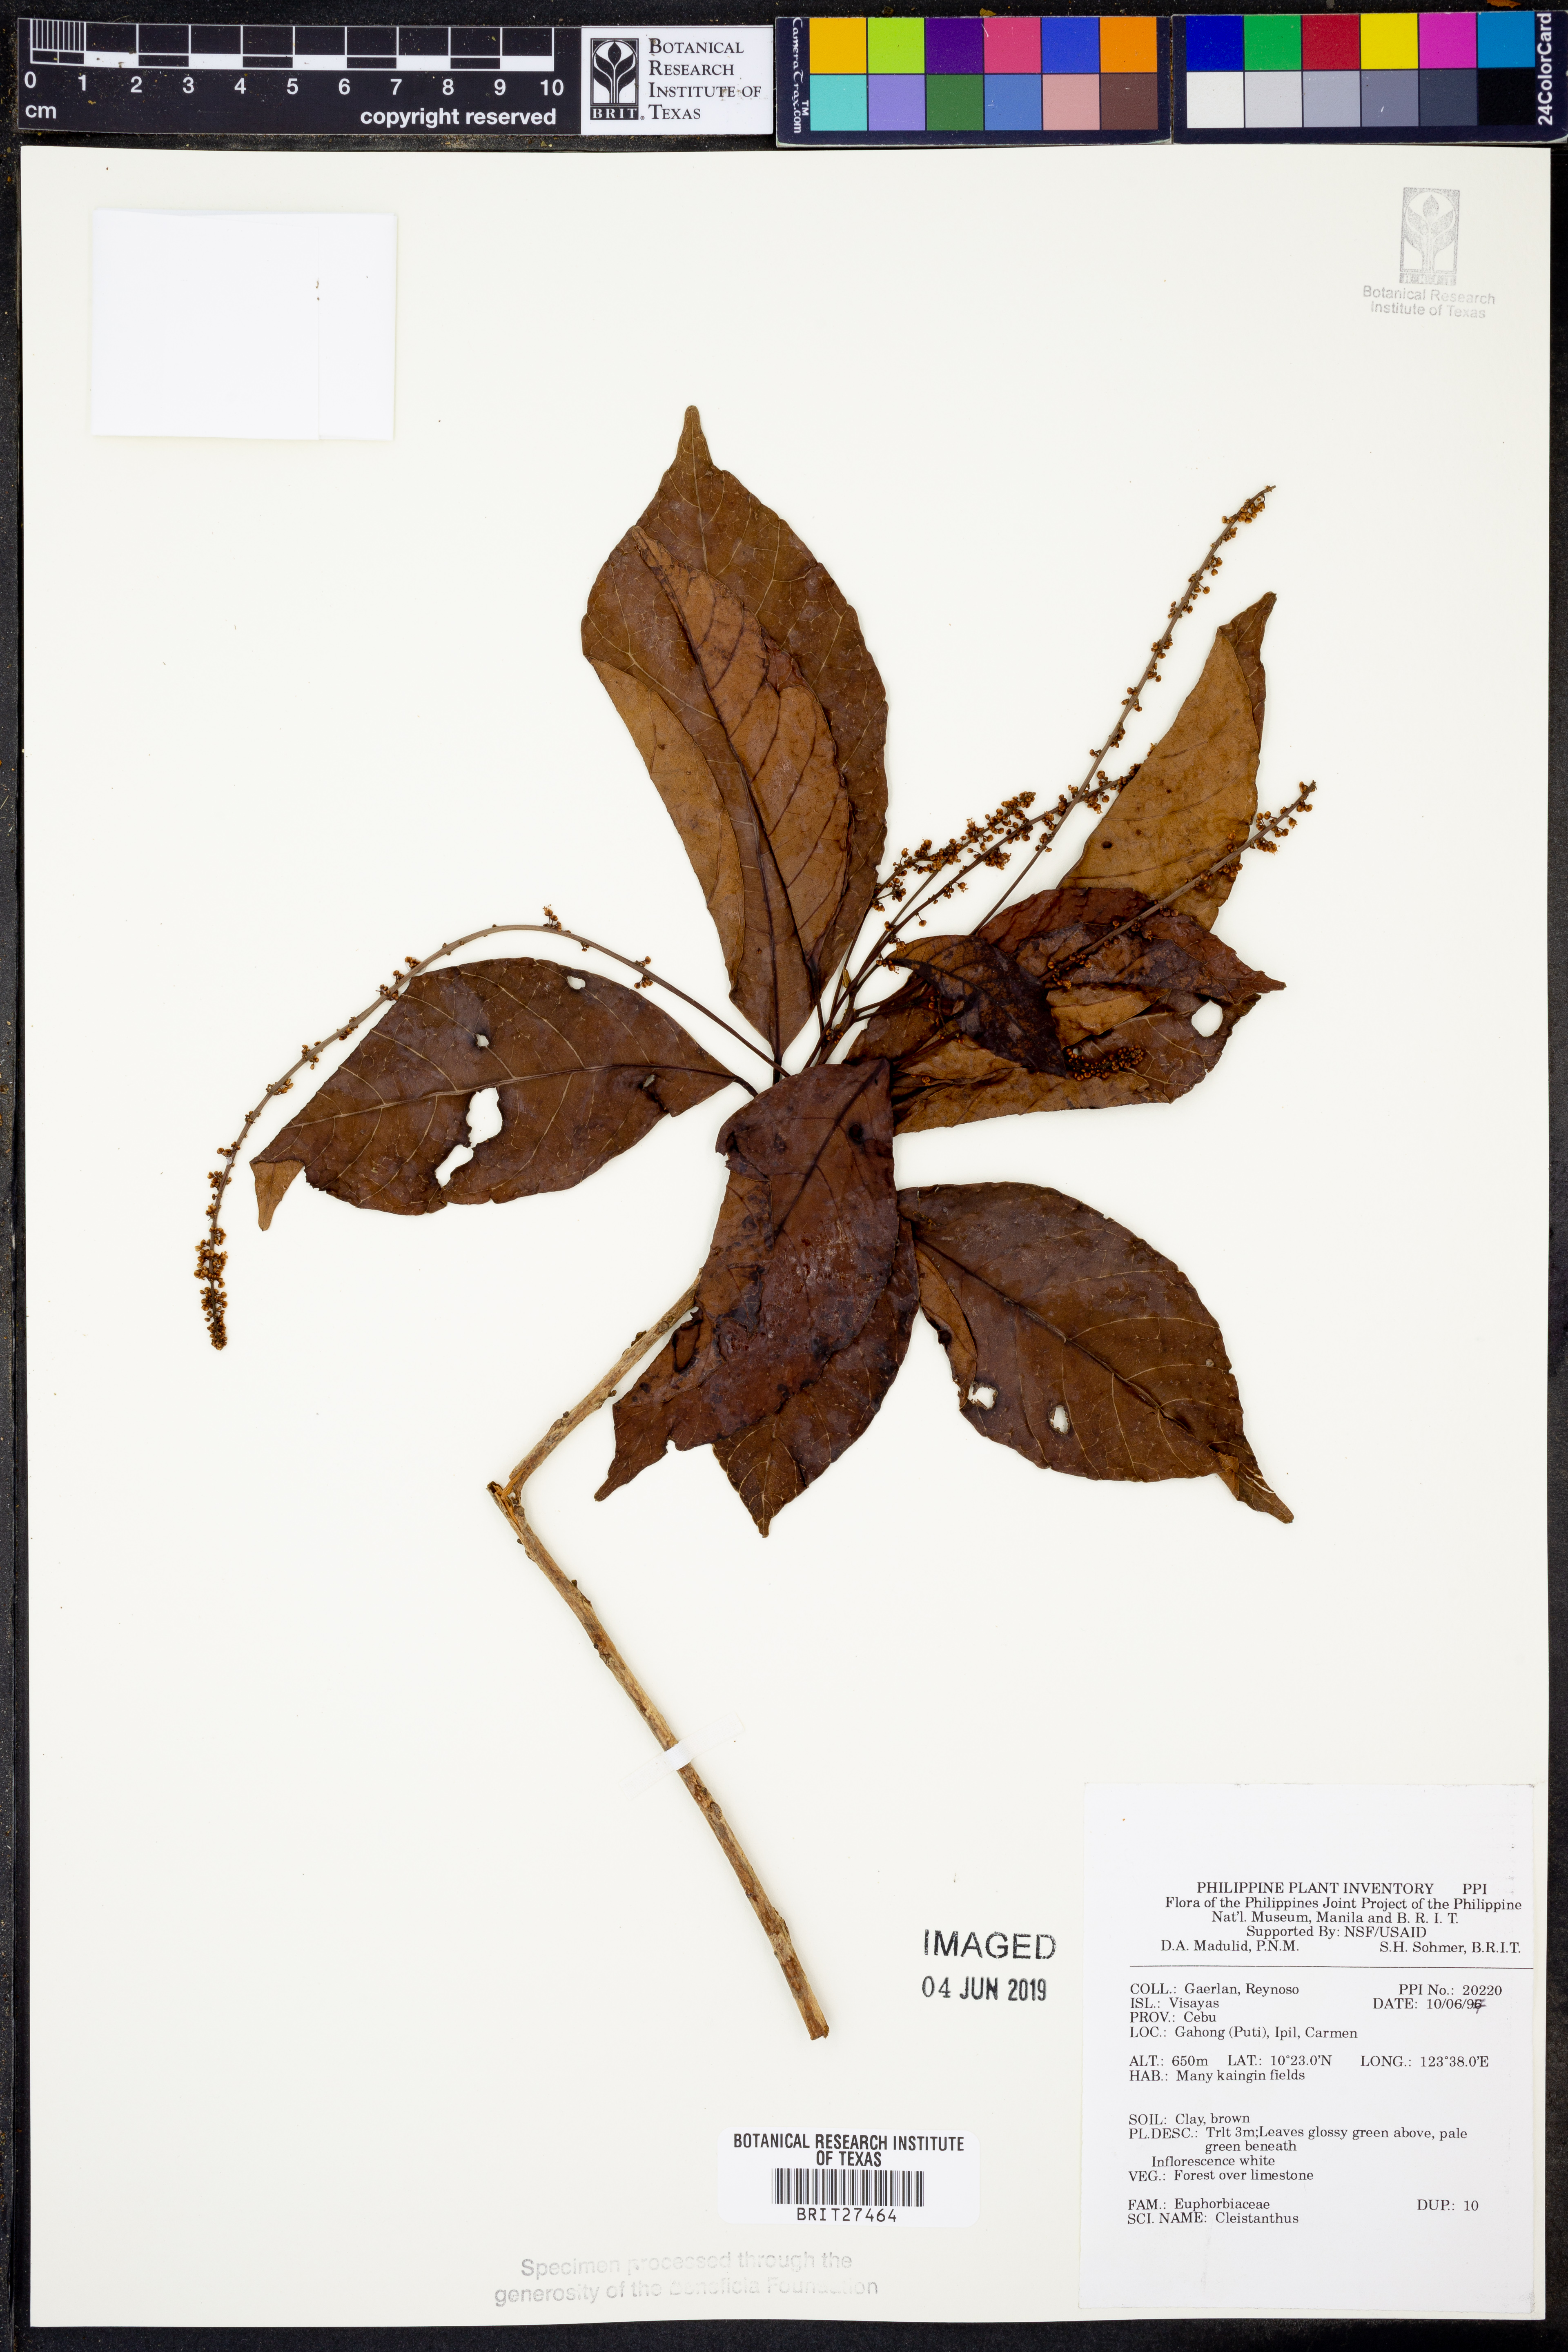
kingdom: Plantae
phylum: Tracheophyta
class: Magnoliopsida
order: Malpighiales
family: Phyllanthaceae
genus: Cleistanthus
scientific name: Cleistanthus
